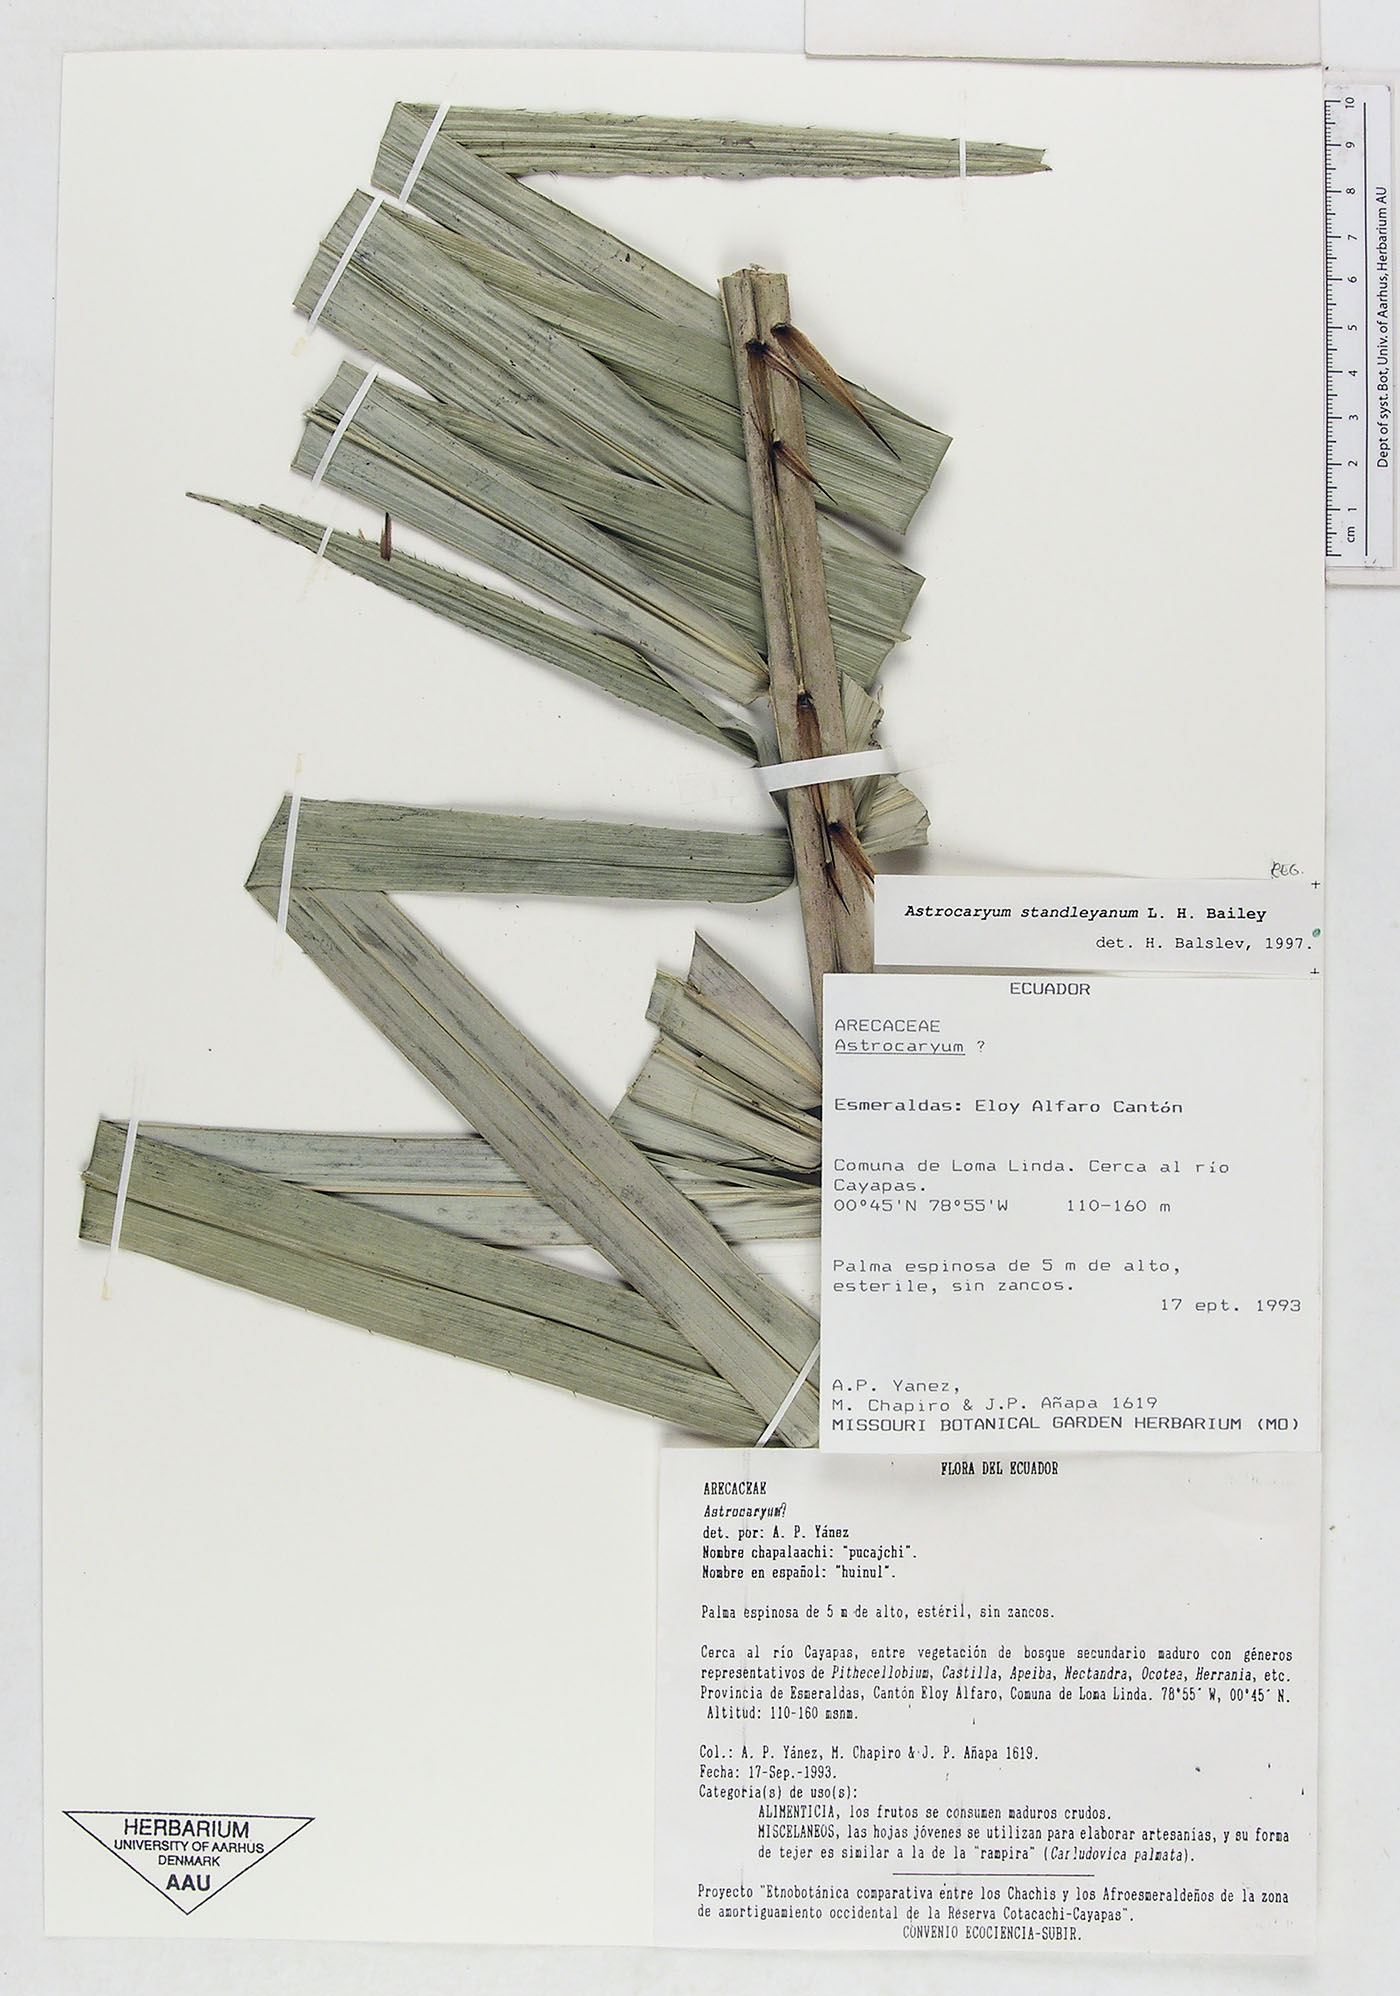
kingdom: Plantae
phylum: Tracheophyta
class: Liliopsida
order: Arecales
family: Arecaceae
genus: Astrocaryum
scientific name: Astrocaryum standleyanum
